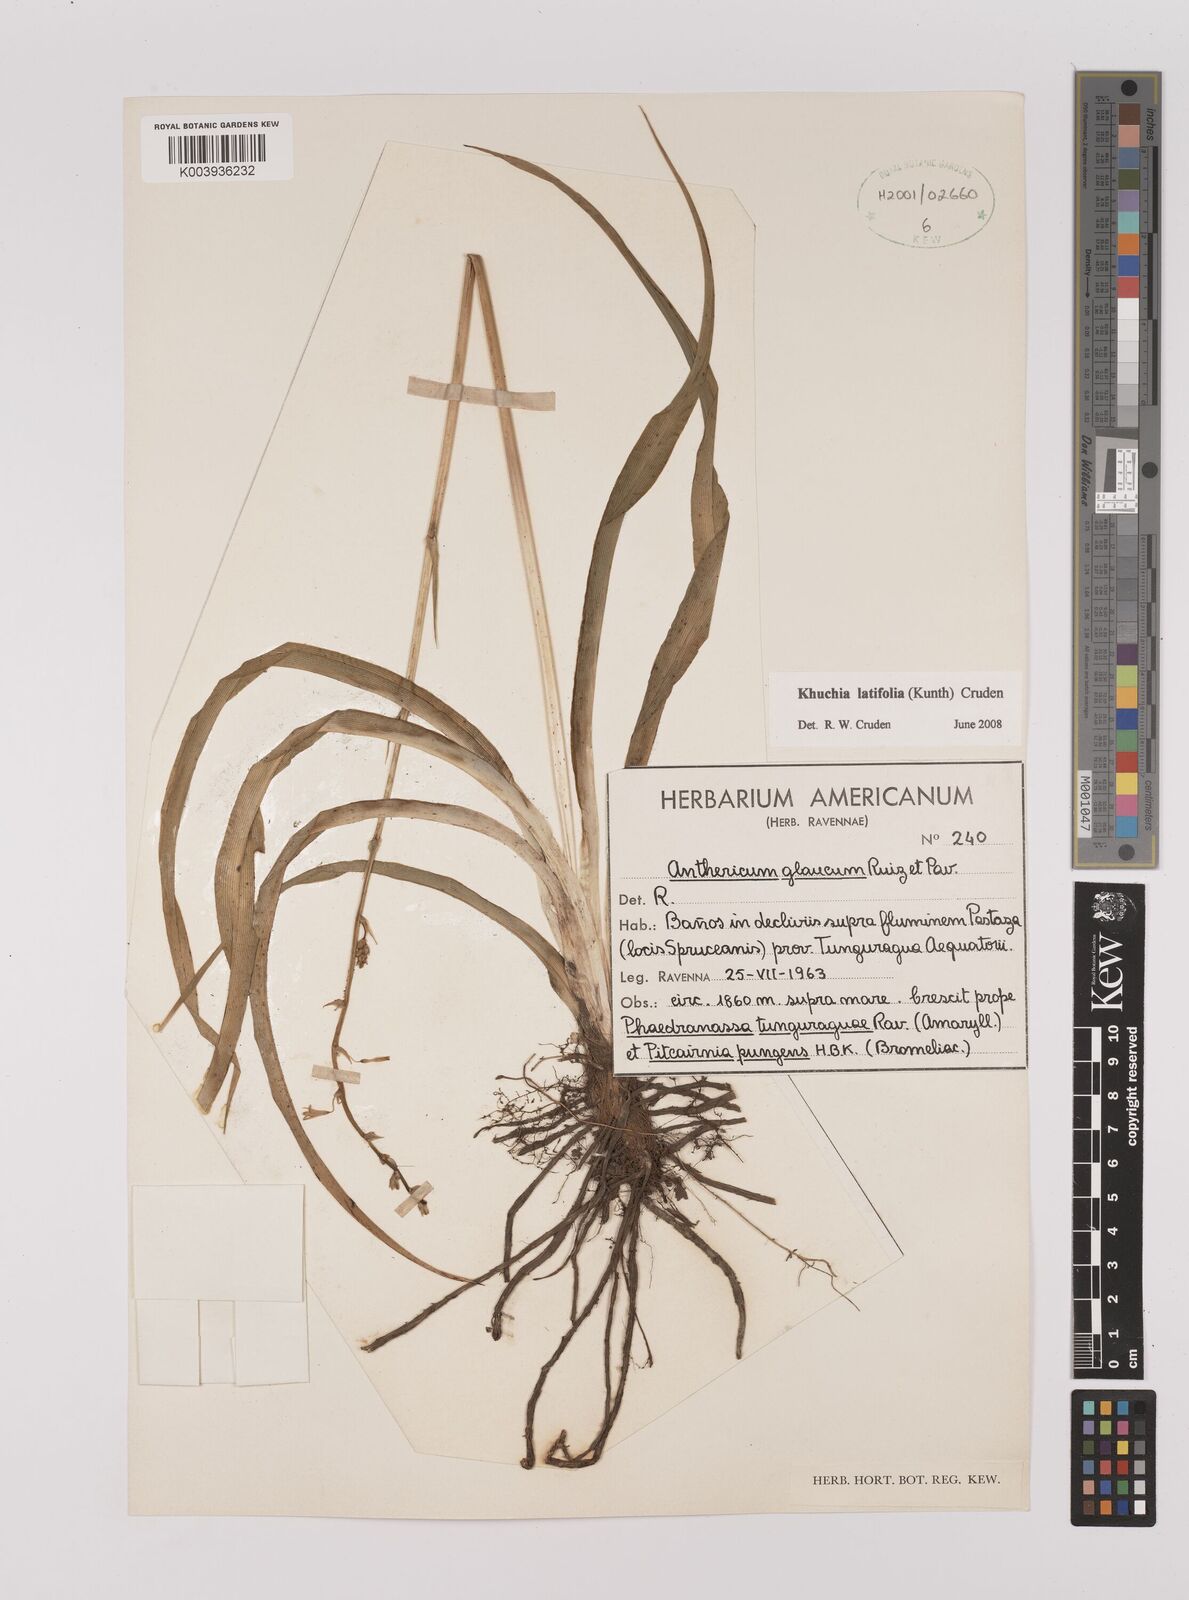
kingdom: Plantae
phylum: Tracheophyta
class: Liliopsida
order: Asparagales
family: Asparagaceae
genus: Echeandia
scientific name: Echeandia
